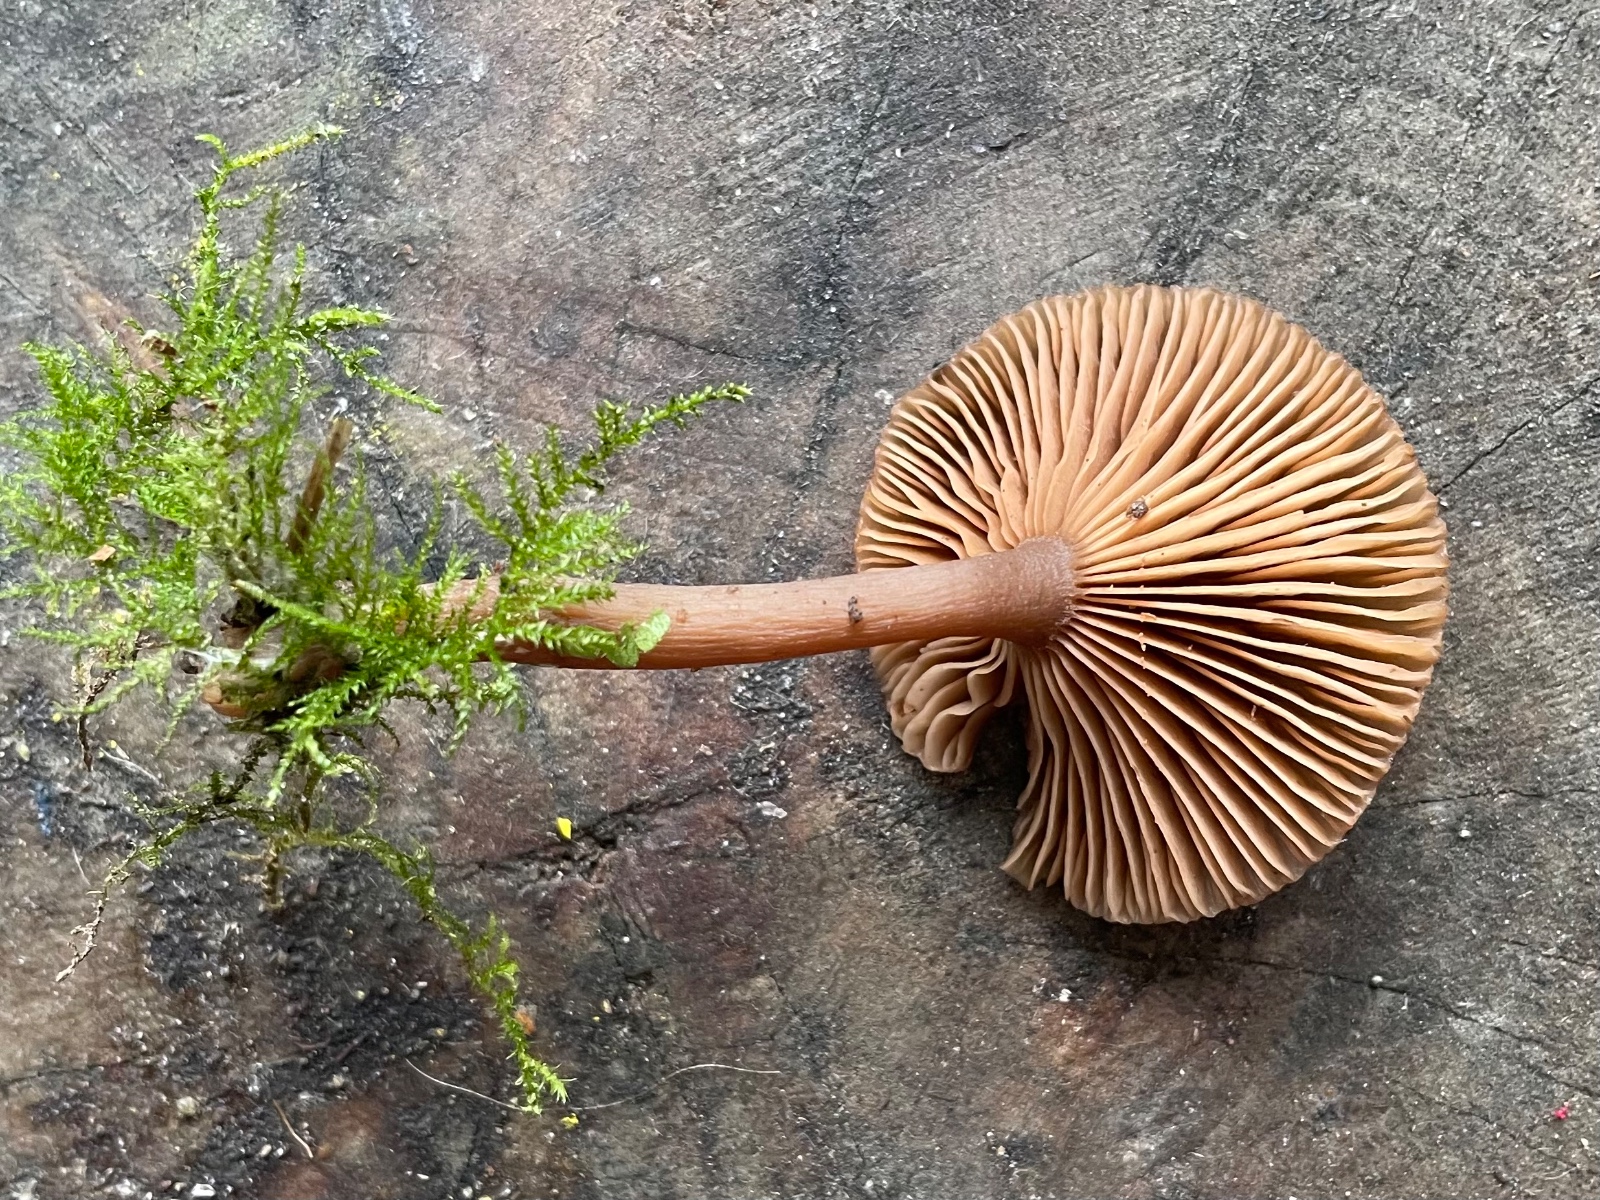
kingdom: Fungi
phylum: Basidiomycota
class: Agaricomycetes
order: Agaricales
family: Pseudoclitocybaceae
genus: Pseudoclitocybe
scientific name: Pseudoclitocybe cyathiformis
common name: almindelig bægertragthat
